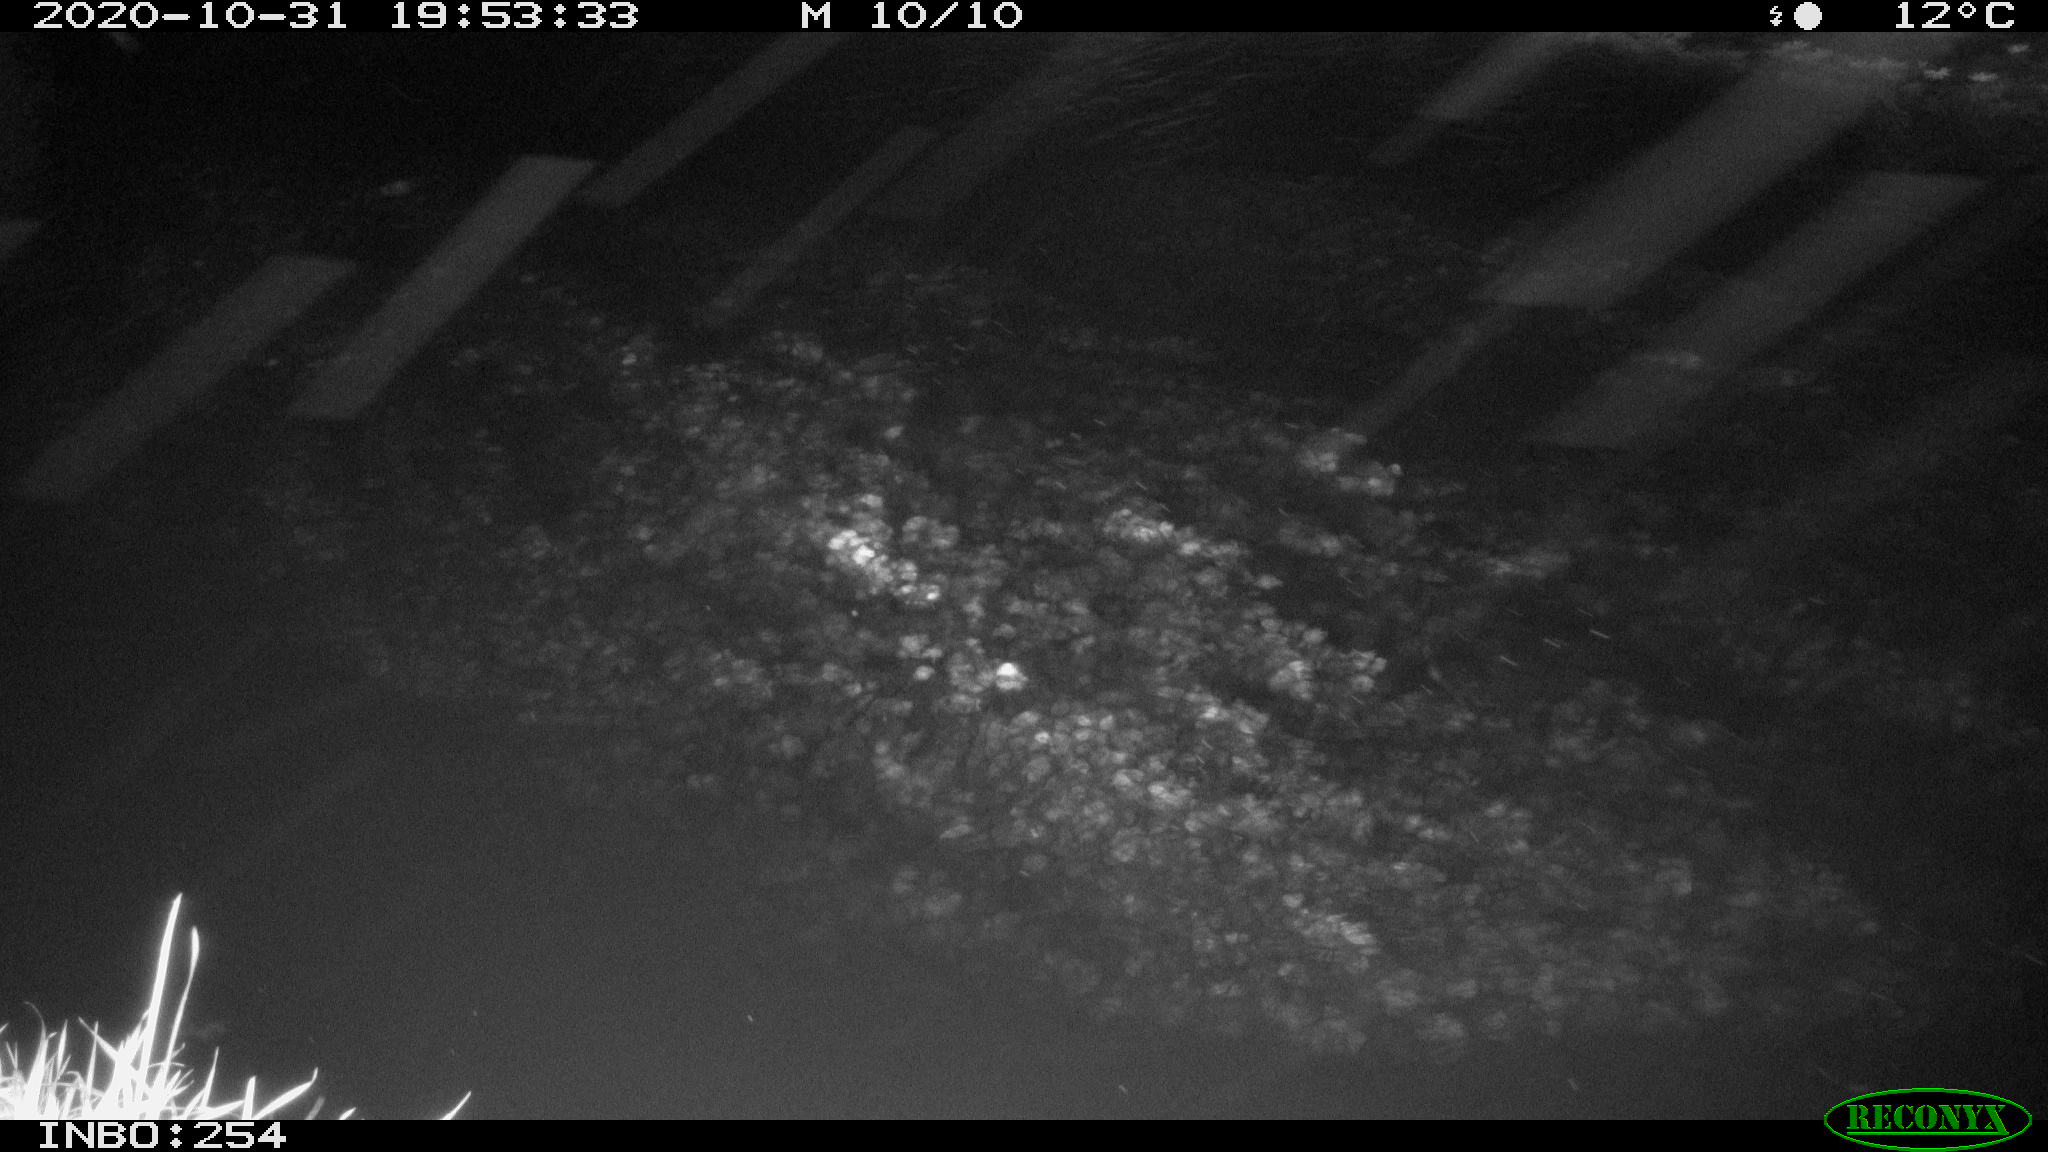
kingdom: Animalia
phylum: Chordata
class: Aves
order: Anseriformes
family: Anatidae
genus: Anas
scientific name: Anas platyrhynchos
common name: Mallard
